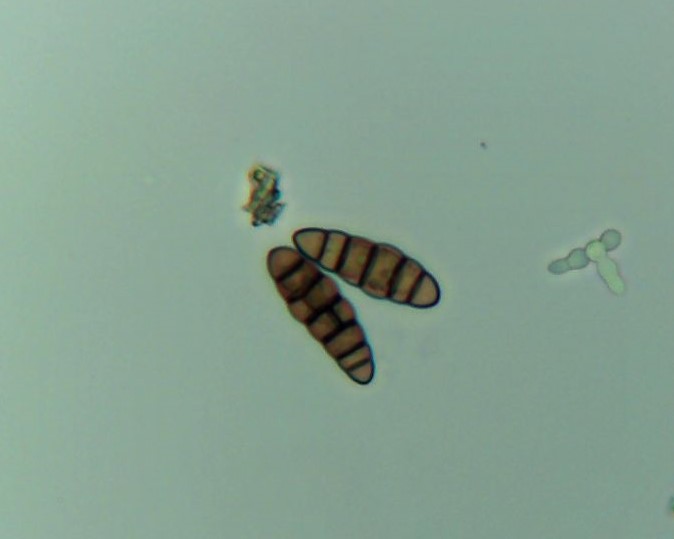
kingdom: Plantae
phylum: Bryophyta
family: Dothideomycetes
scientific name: Dothideomycetes
